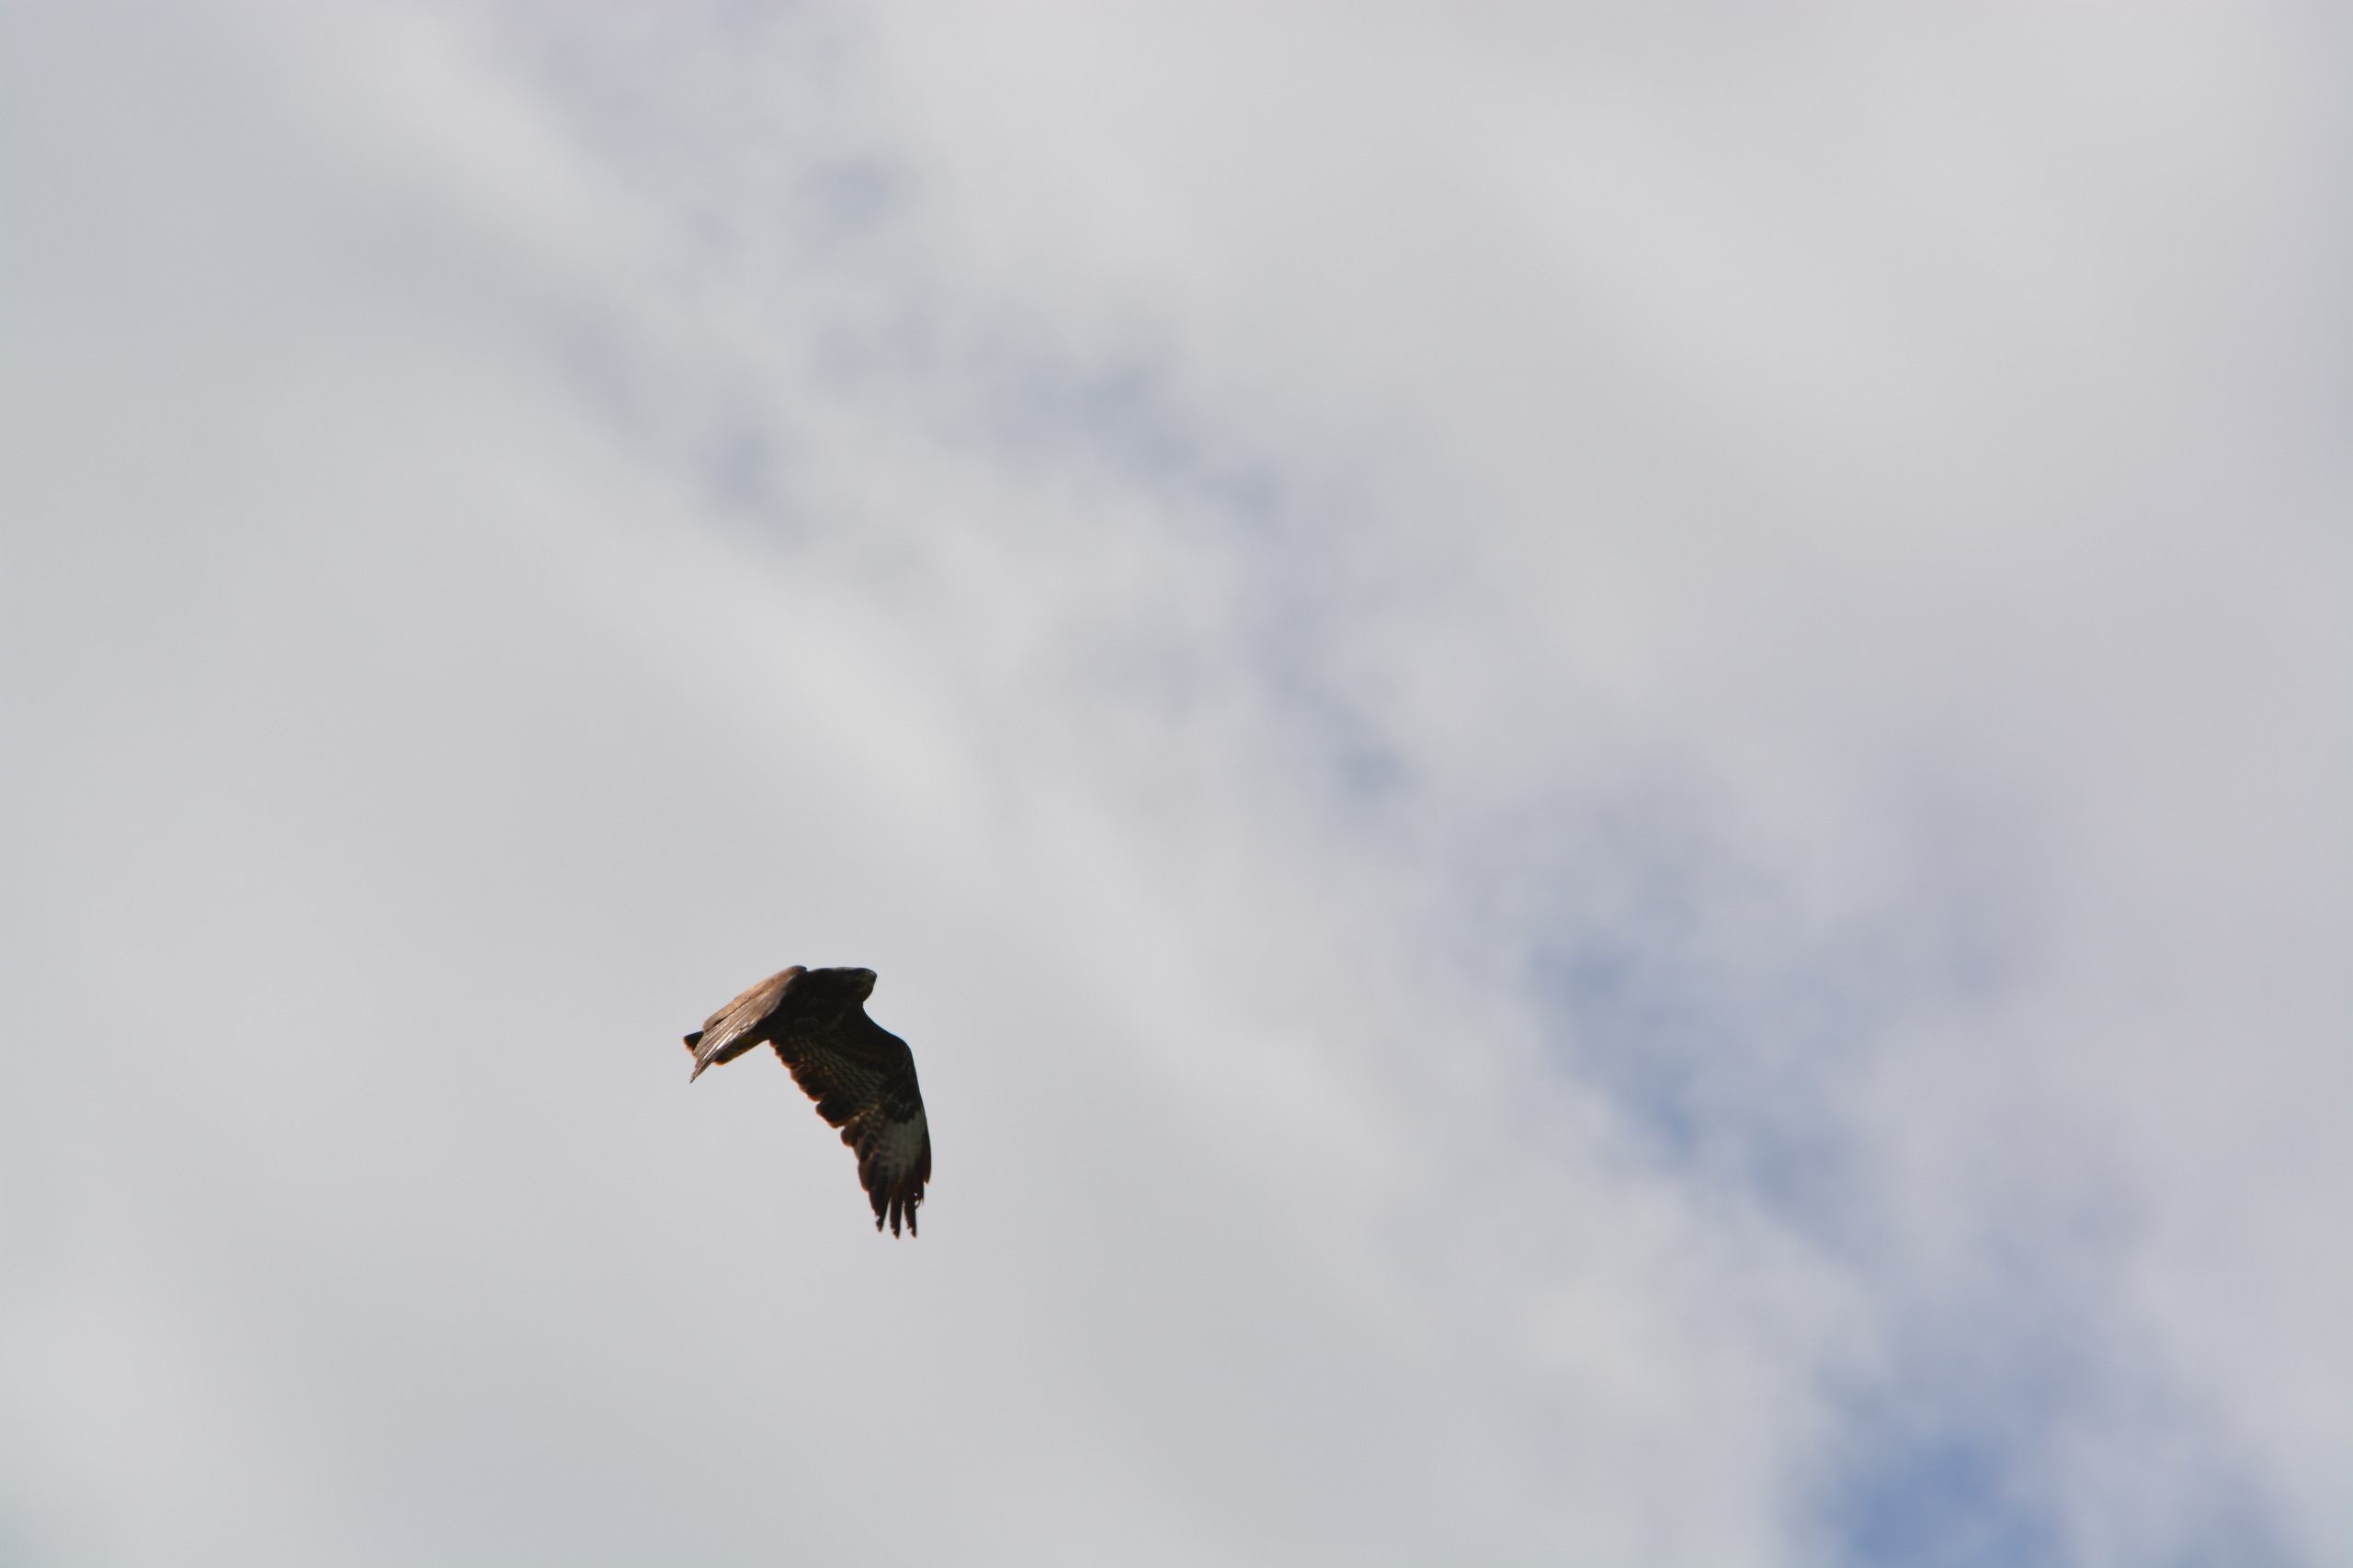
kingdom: Animalia
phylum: Chordata
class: Aves
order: Accipitriformes
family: Accipitridae
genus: Buteo
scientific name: Buteo buteo
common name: Musvåge
